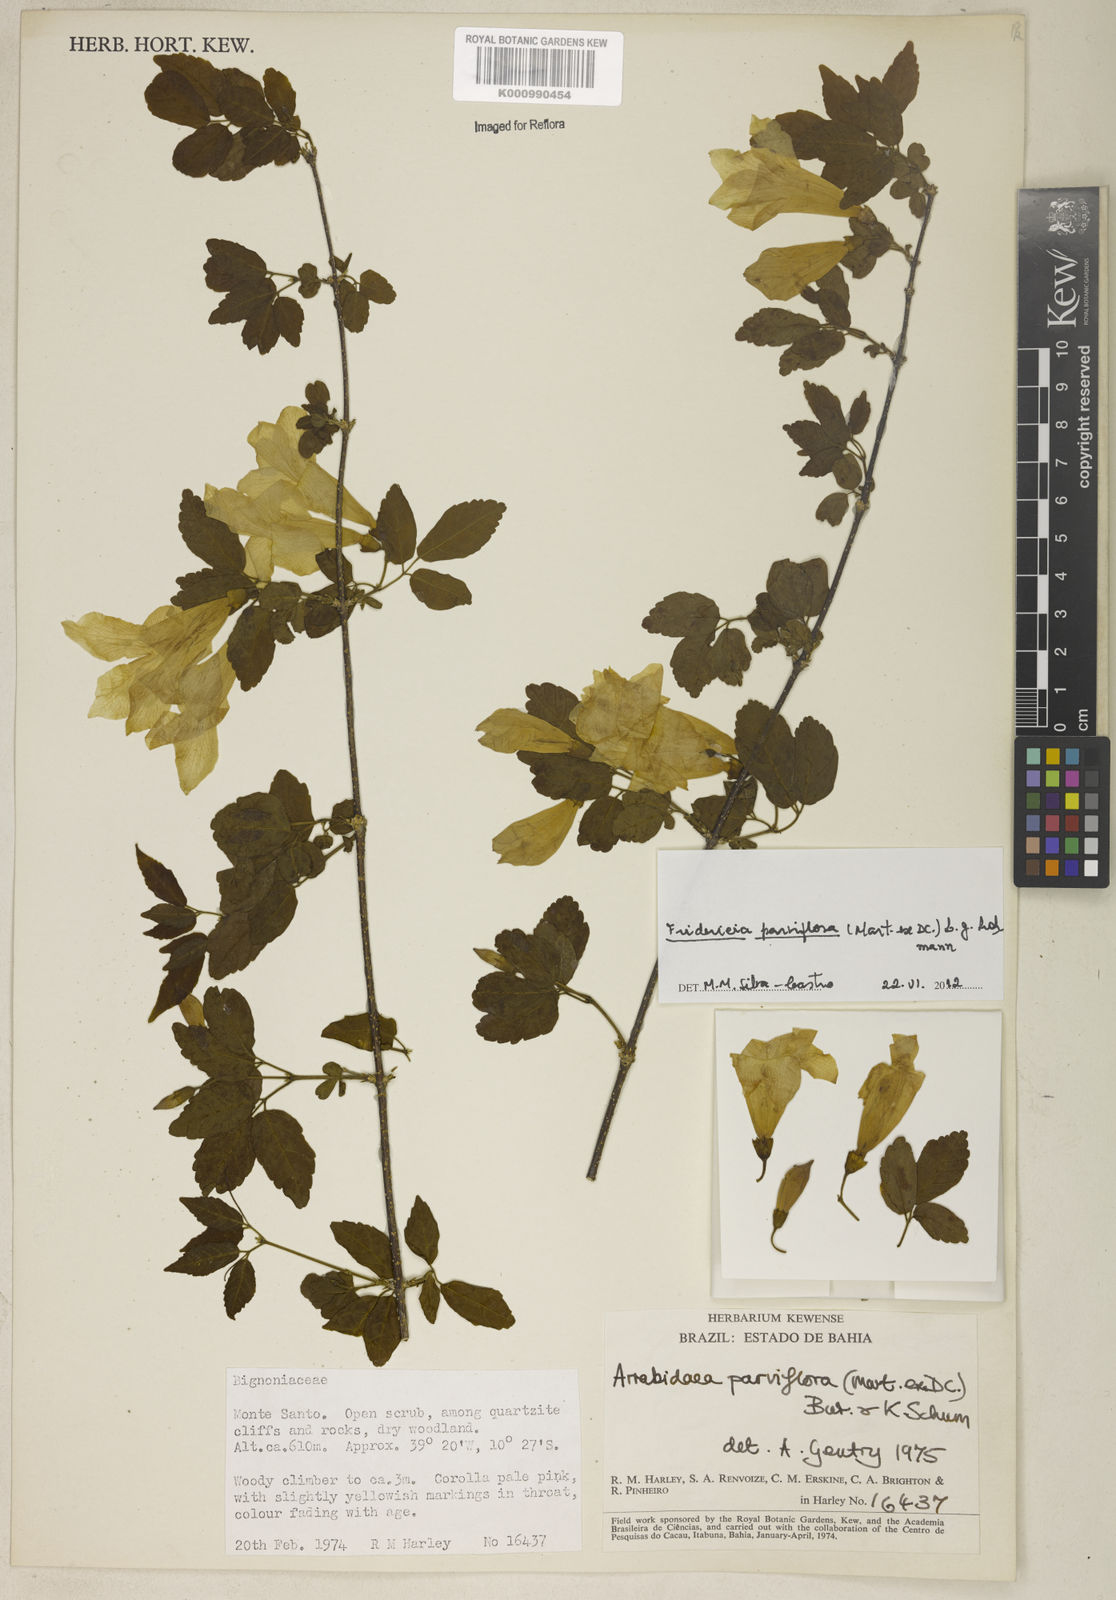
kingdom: Plantae
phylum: Tracheophyta
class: Magnoliopsida
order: Lamiales
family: Bignoniaceae
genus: Tanaecium
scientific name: Tanaecium parviflorum
